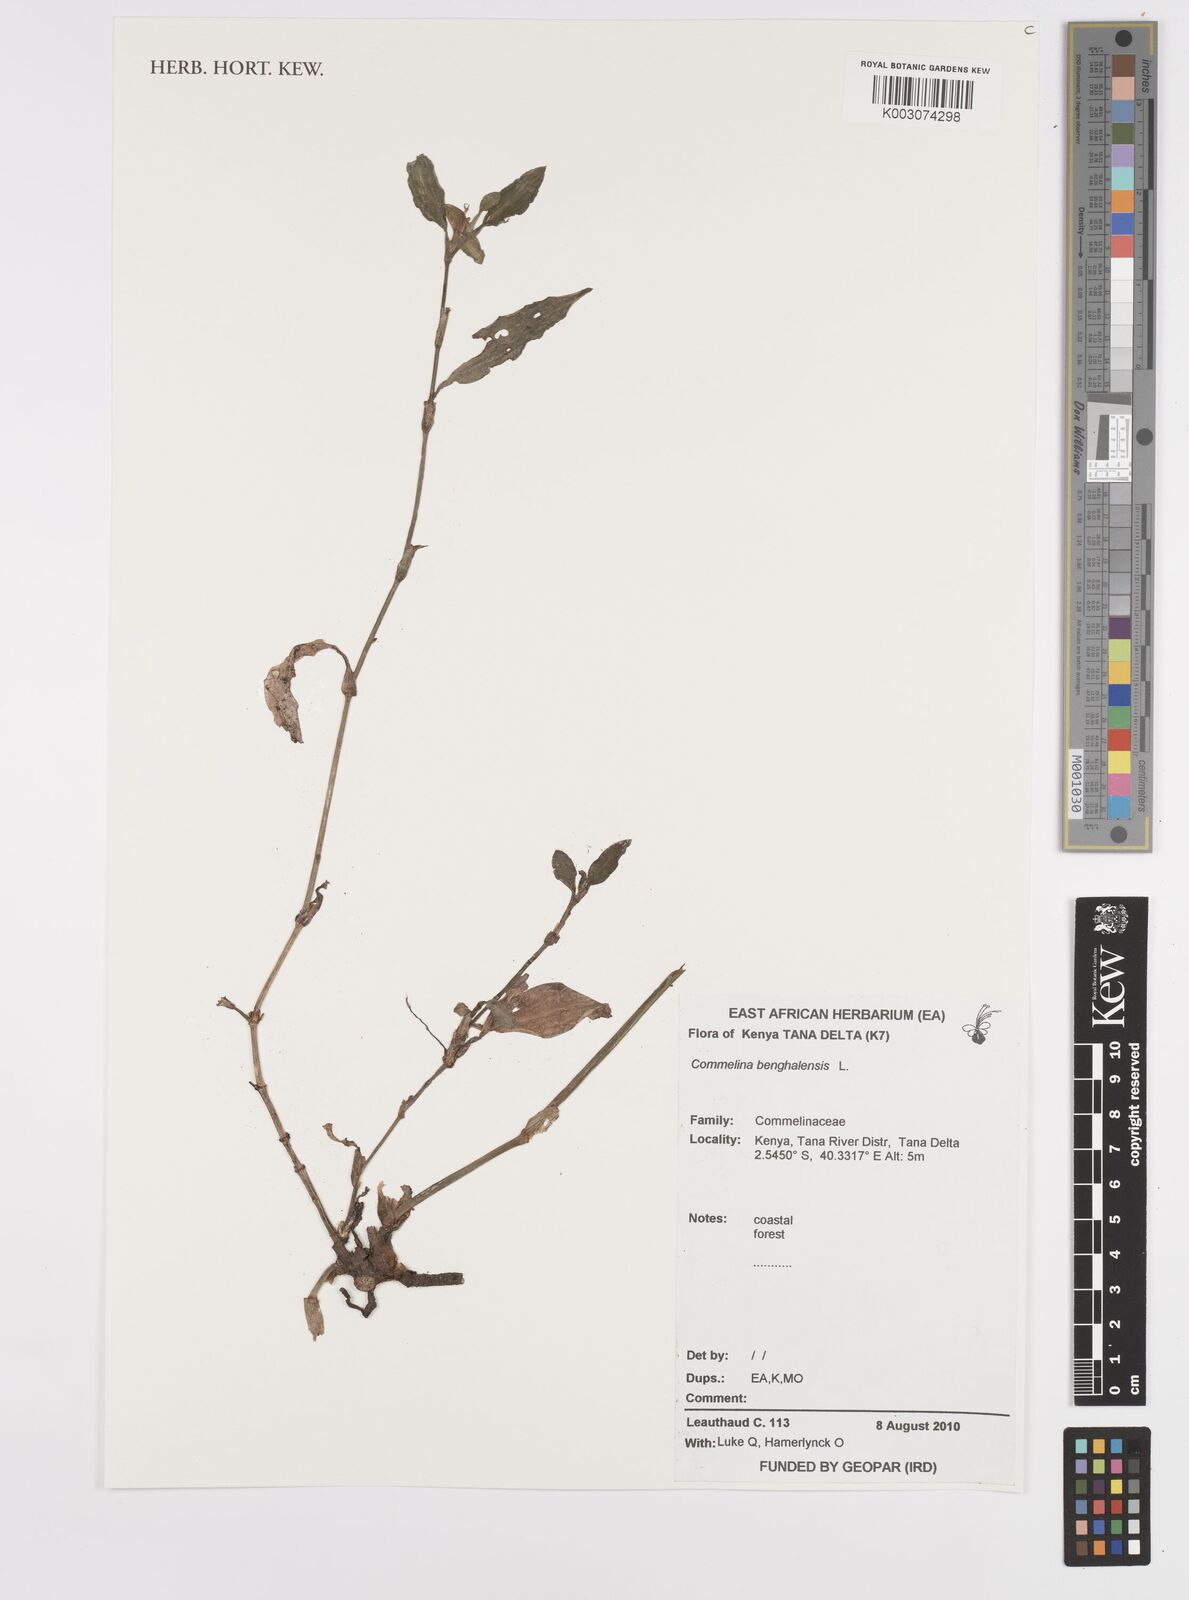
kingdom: Plantae
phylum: Tracheophyta
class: Liliopsida
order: Commelinales
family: Commelinaceae
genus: Commelina
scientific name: Commelina benghalensis
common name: Jio
